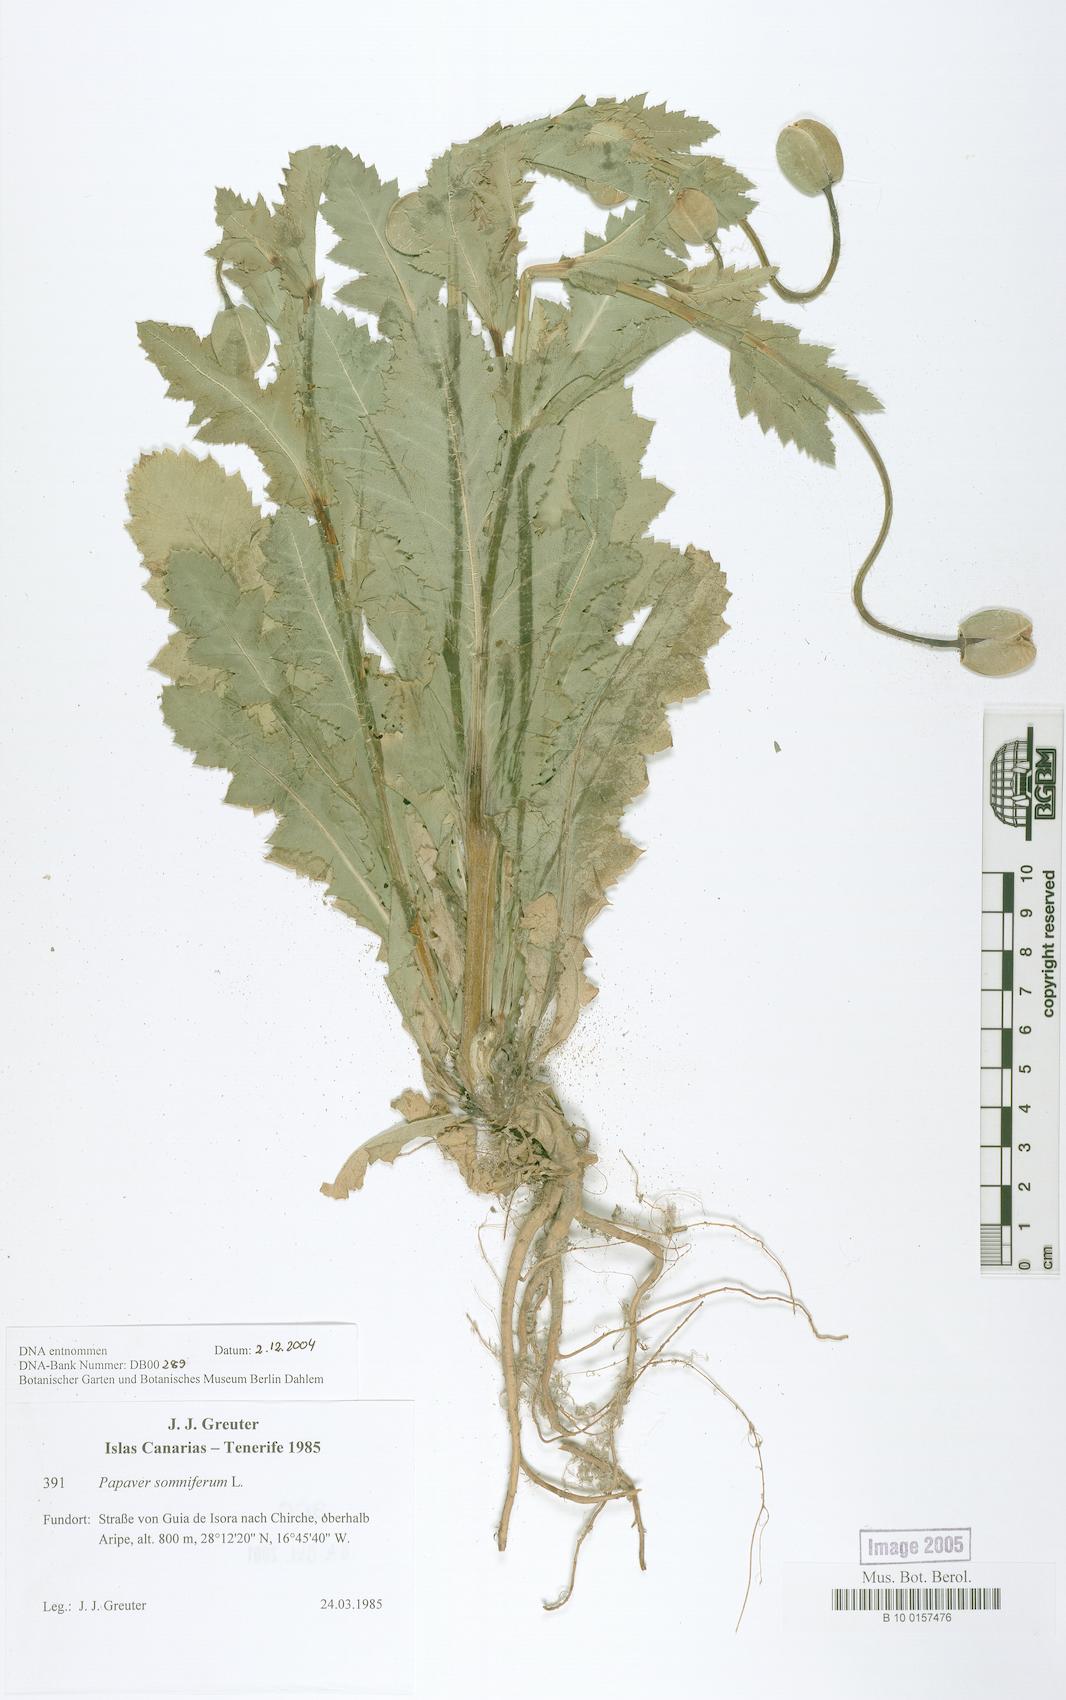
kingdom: Plantae
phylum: Tracheophyta
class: Magnoliopsida
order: Ranunculales
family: Papaveraceae
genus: Papaver
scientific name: Papaver somniferum
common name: Opium poppy
